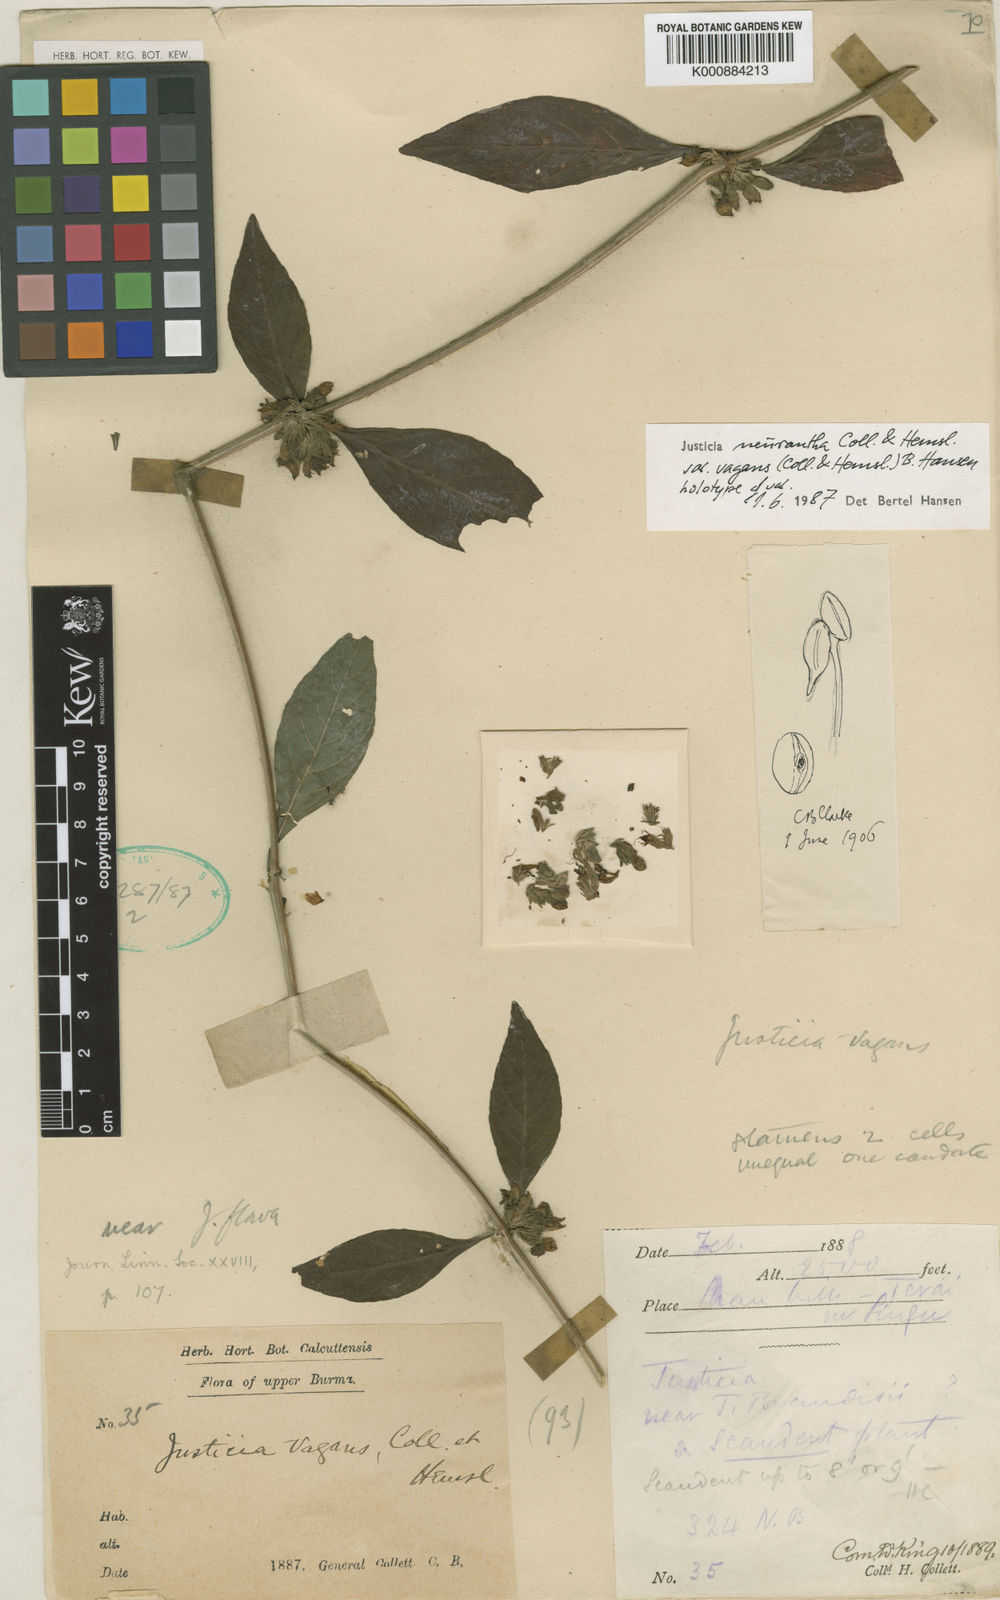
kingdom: Plantae
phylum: Tracheophyta
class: Magnoliopsida
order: Lamiales
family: Acanthaceae
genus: Justicia
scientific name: Justicia neurantha
